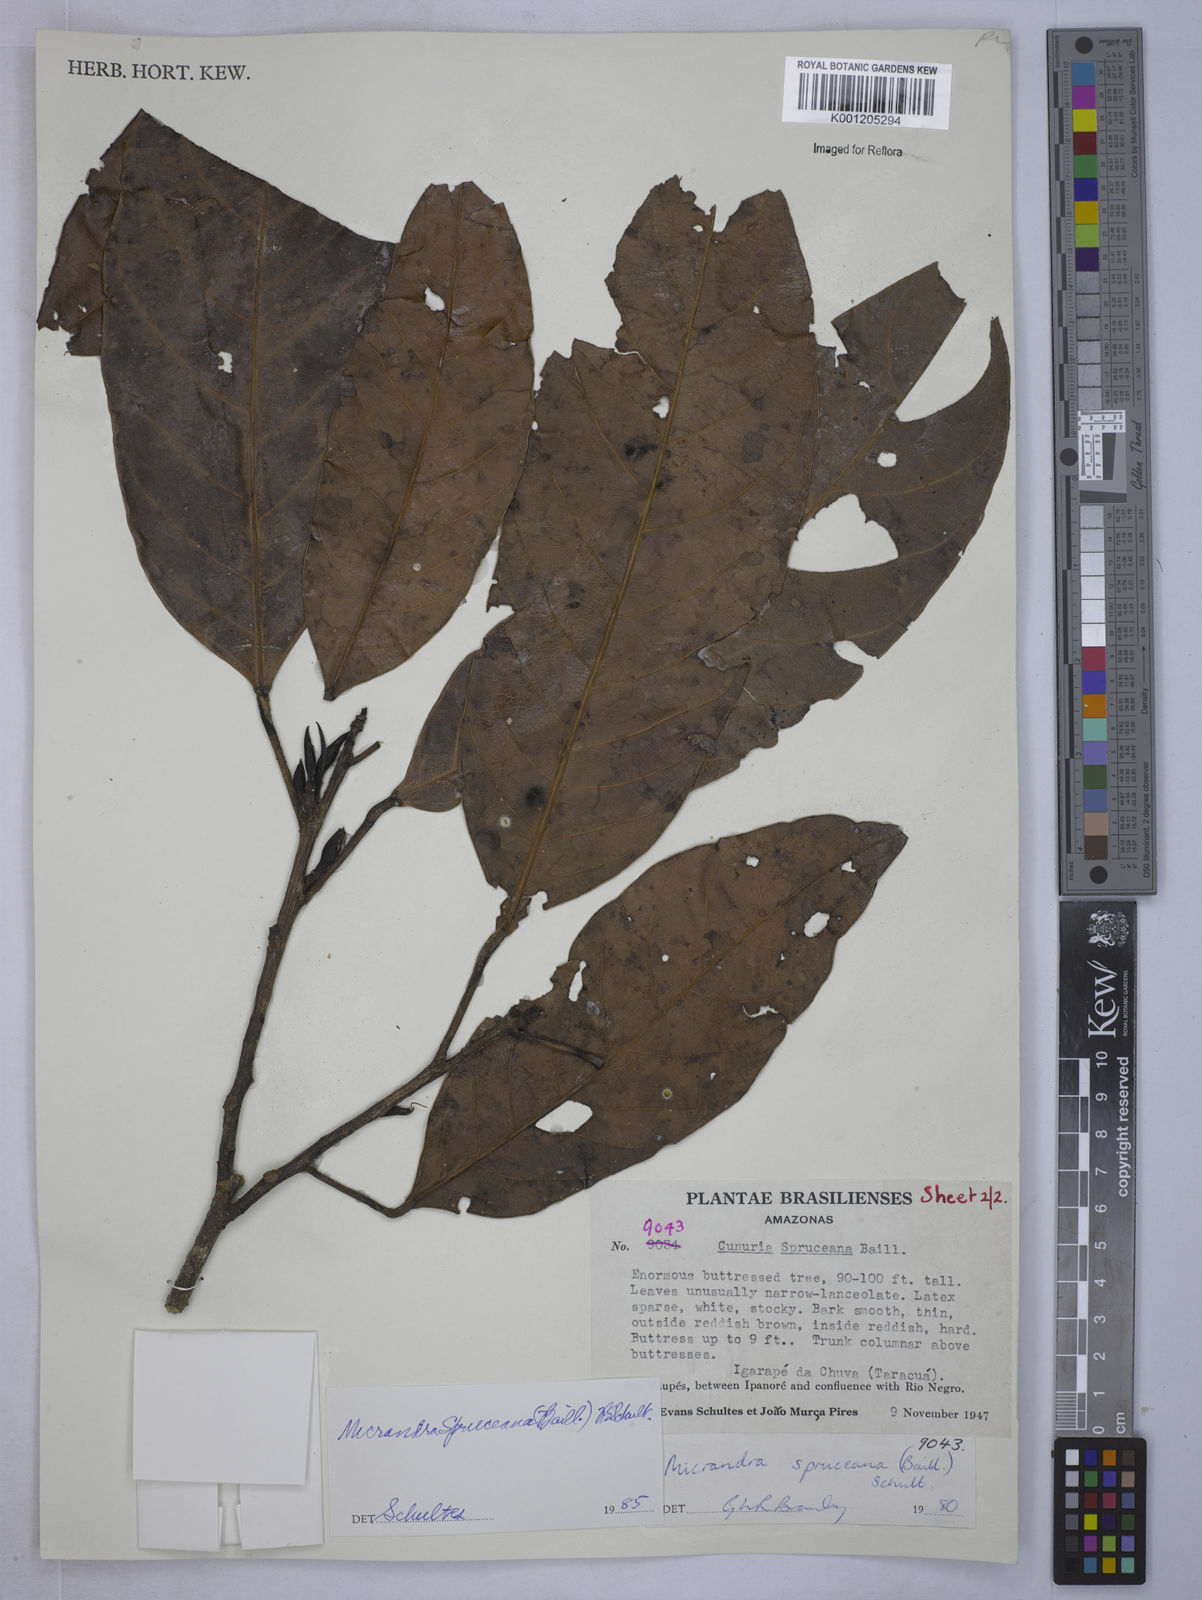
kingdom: Plantae
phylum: Tracheophyta
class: Magnoliopsida
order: Malpighiales
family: Euphorbiaceae
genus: Micrandra
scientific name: Micrandra spruceana
